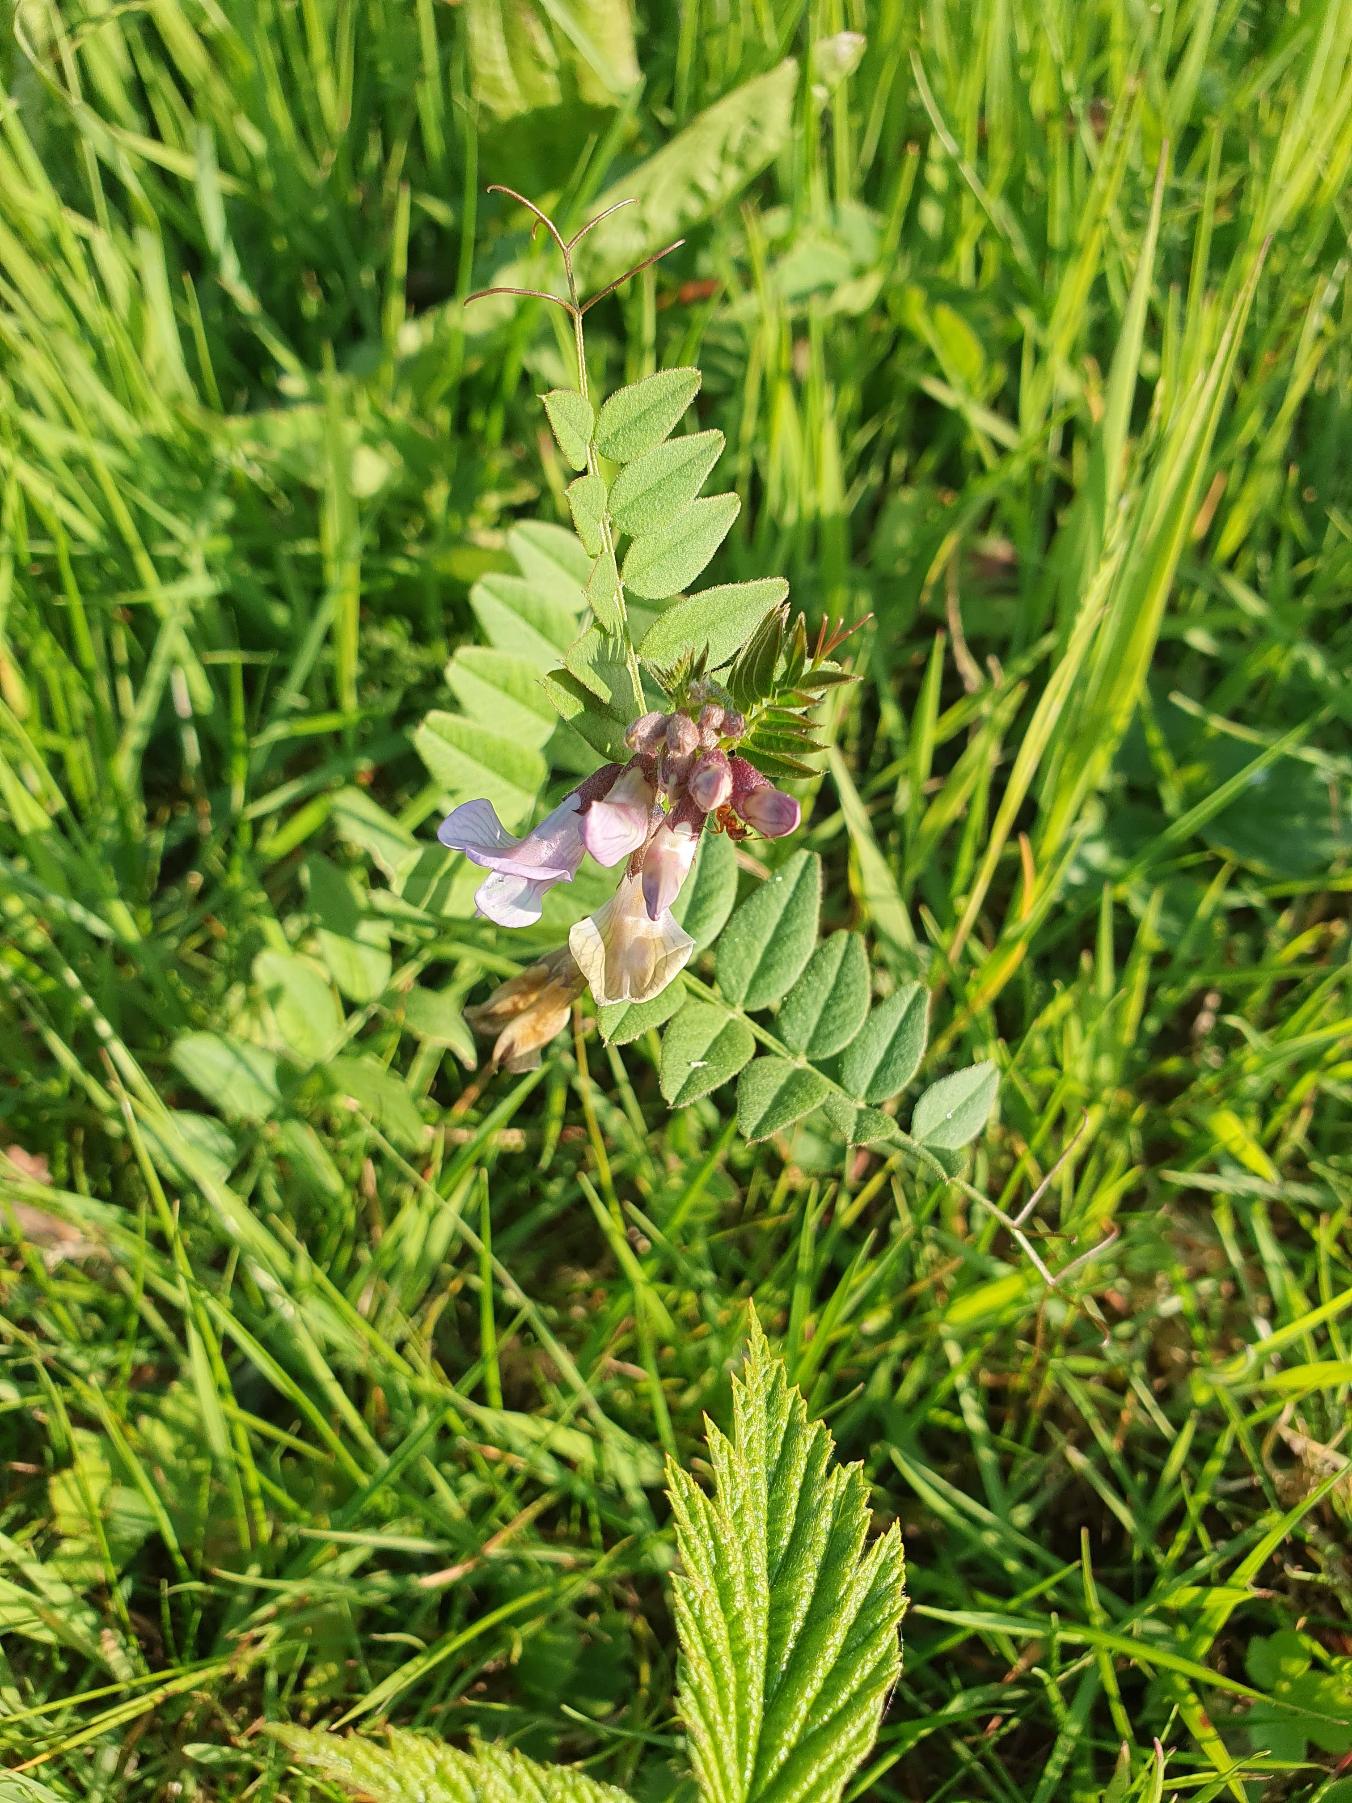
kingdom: Plantae
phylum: Tracheophyta
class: Magnoliopsida
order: Fabales
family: Fabaceae
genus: Vicia
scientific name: Vicia sepium
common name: Gærde-vikke
